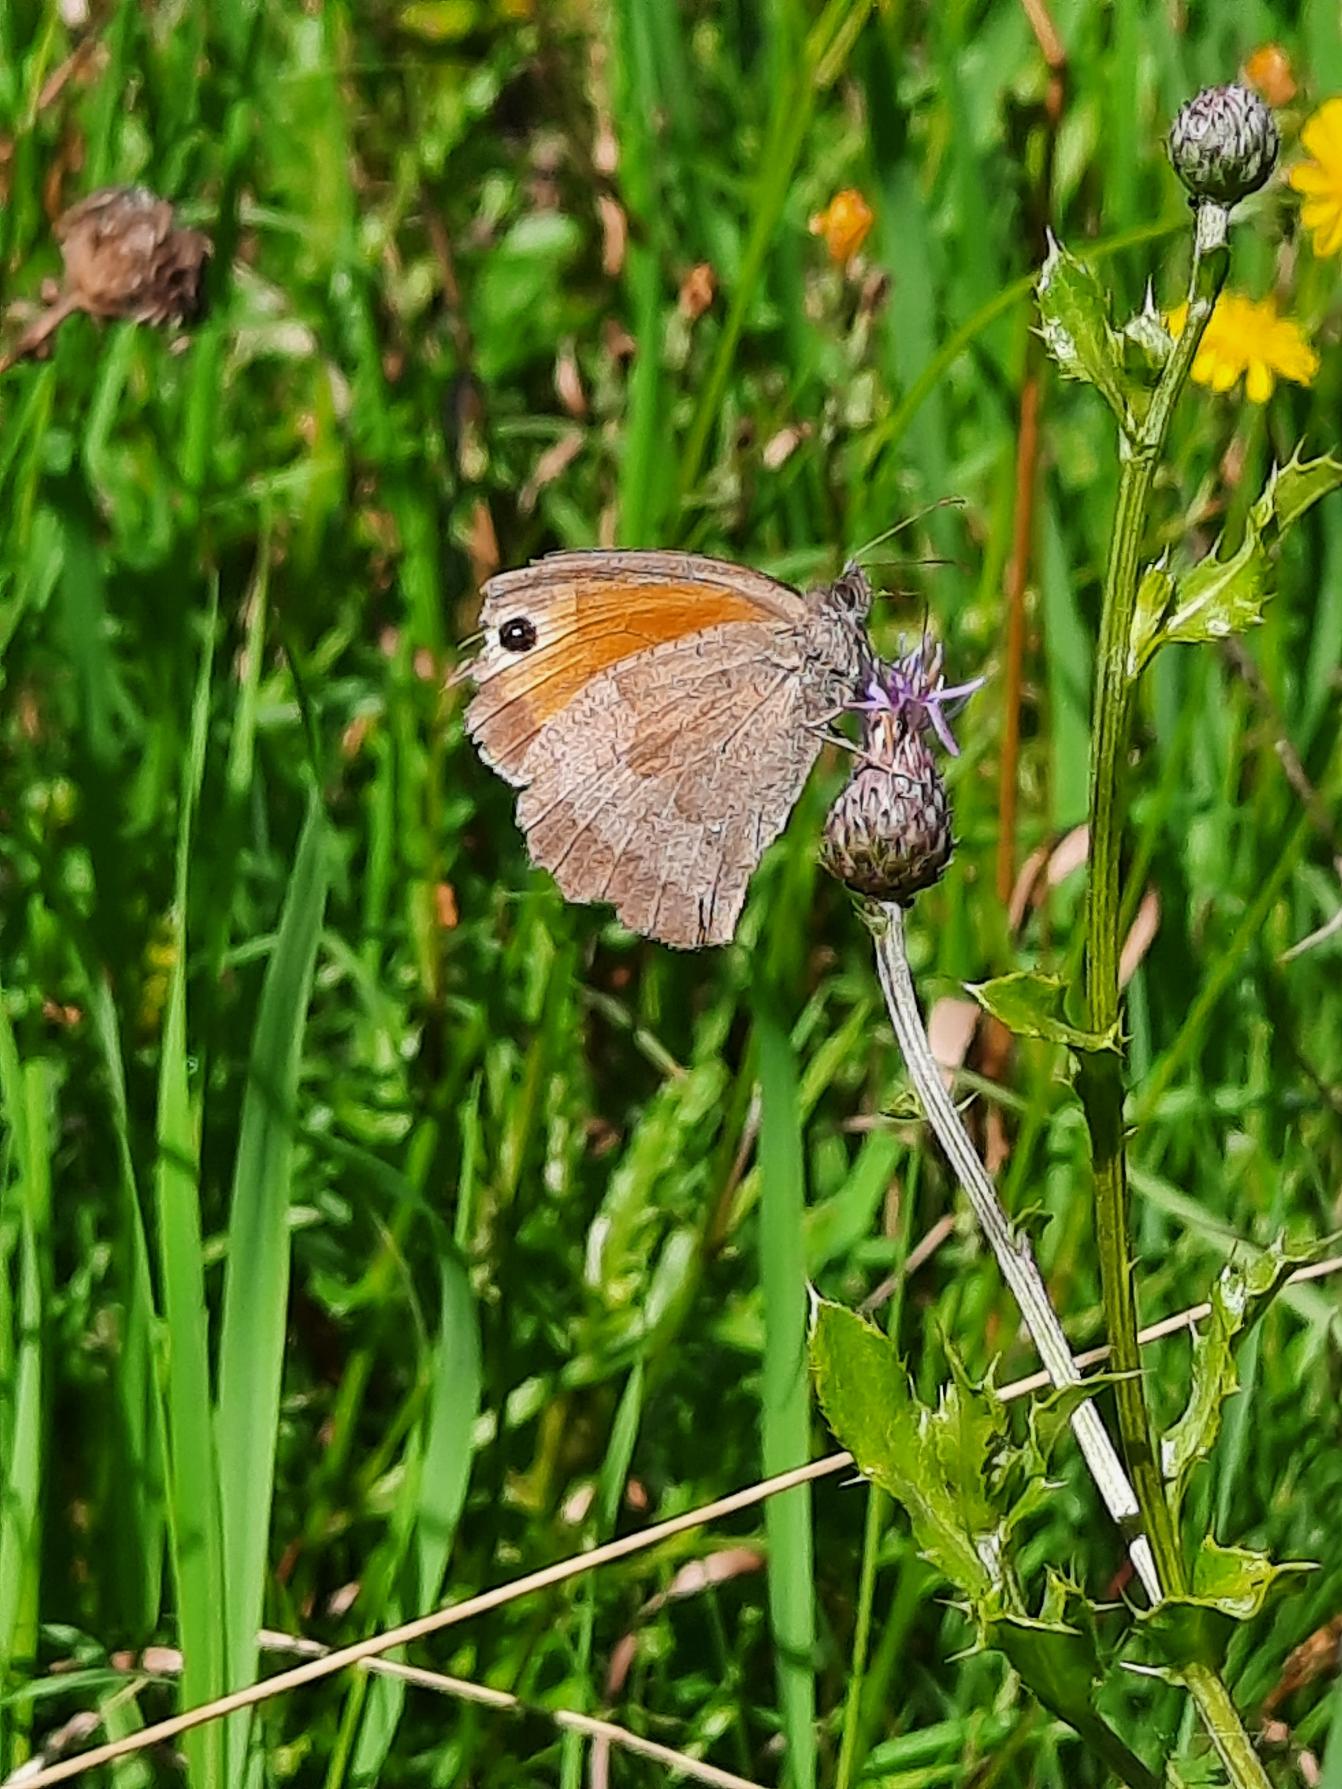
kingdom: Animalia
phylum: Arthropoda
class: Insecta
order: Lepidoptera
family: Nymphalidae
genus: Maniola
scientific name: Maniola jurtina
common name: Græsrandøje
